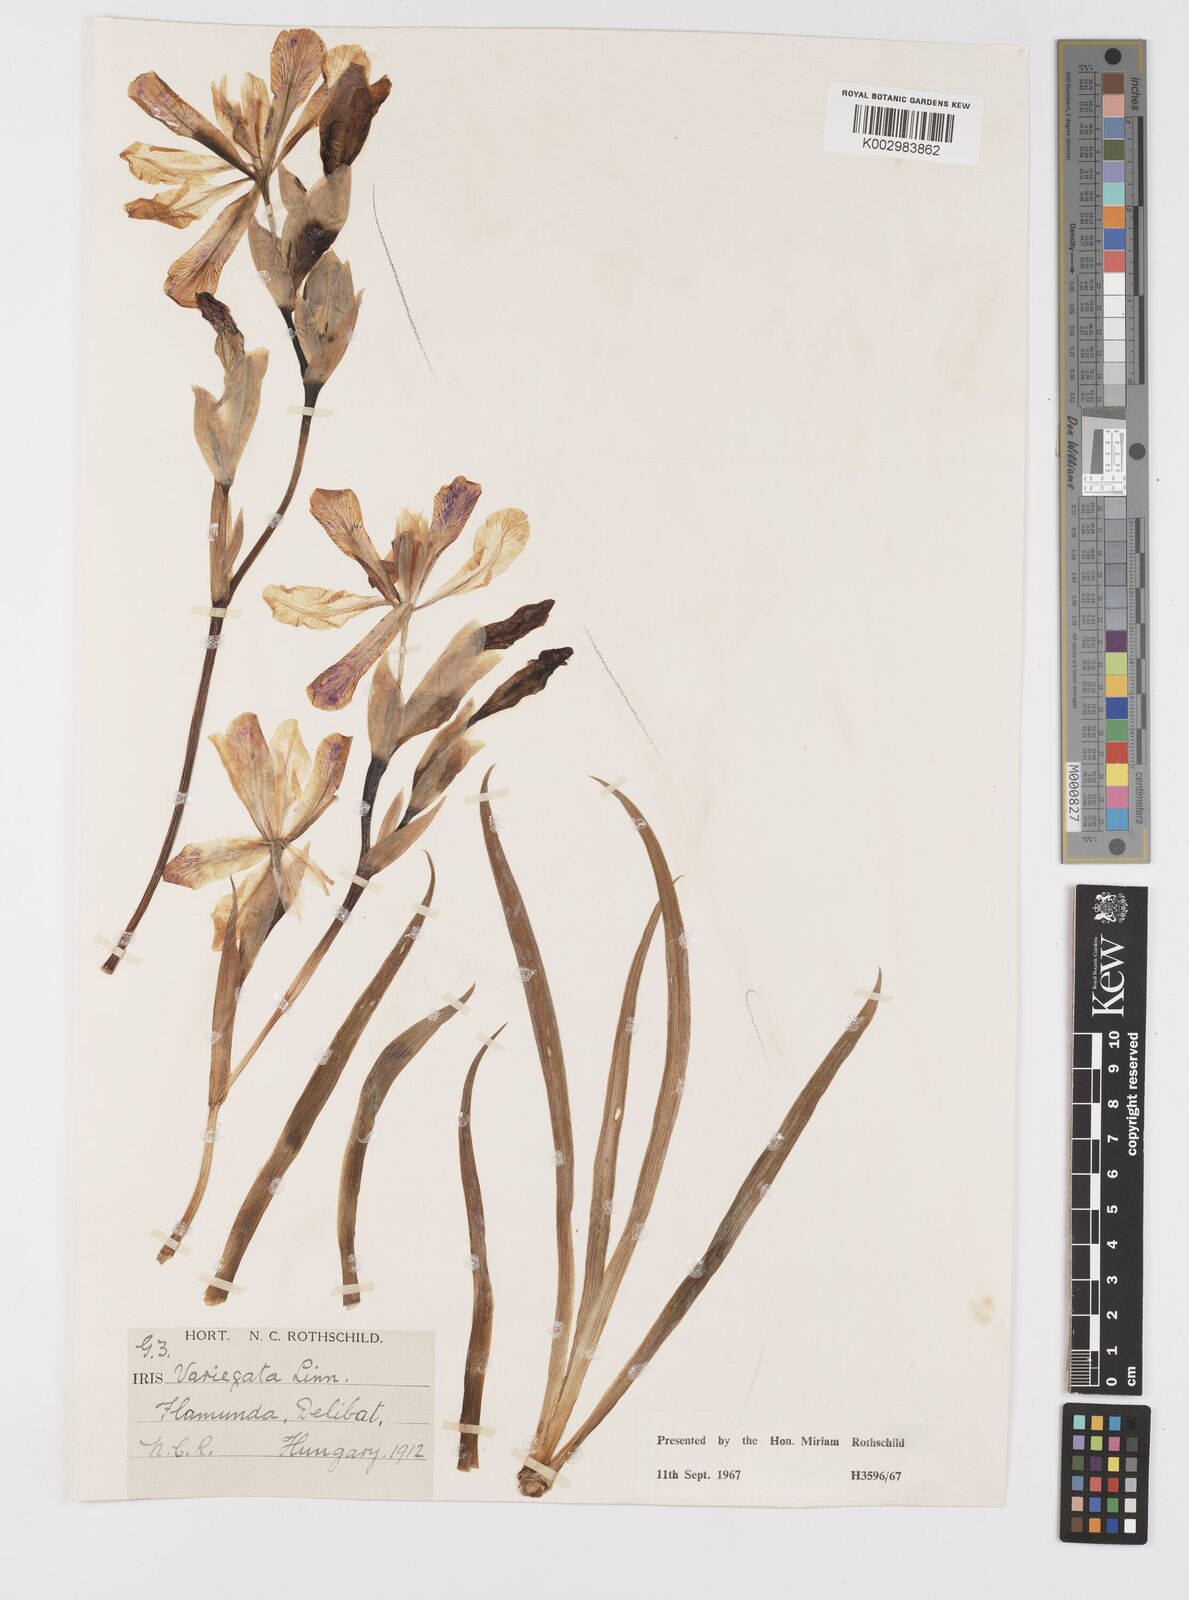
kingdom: Plantae
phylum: Tracheophyta
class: Liliopsida
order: Asparagales
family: Iridaceae
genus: Iris
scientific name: Iris variegata
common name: Hungarian iris
